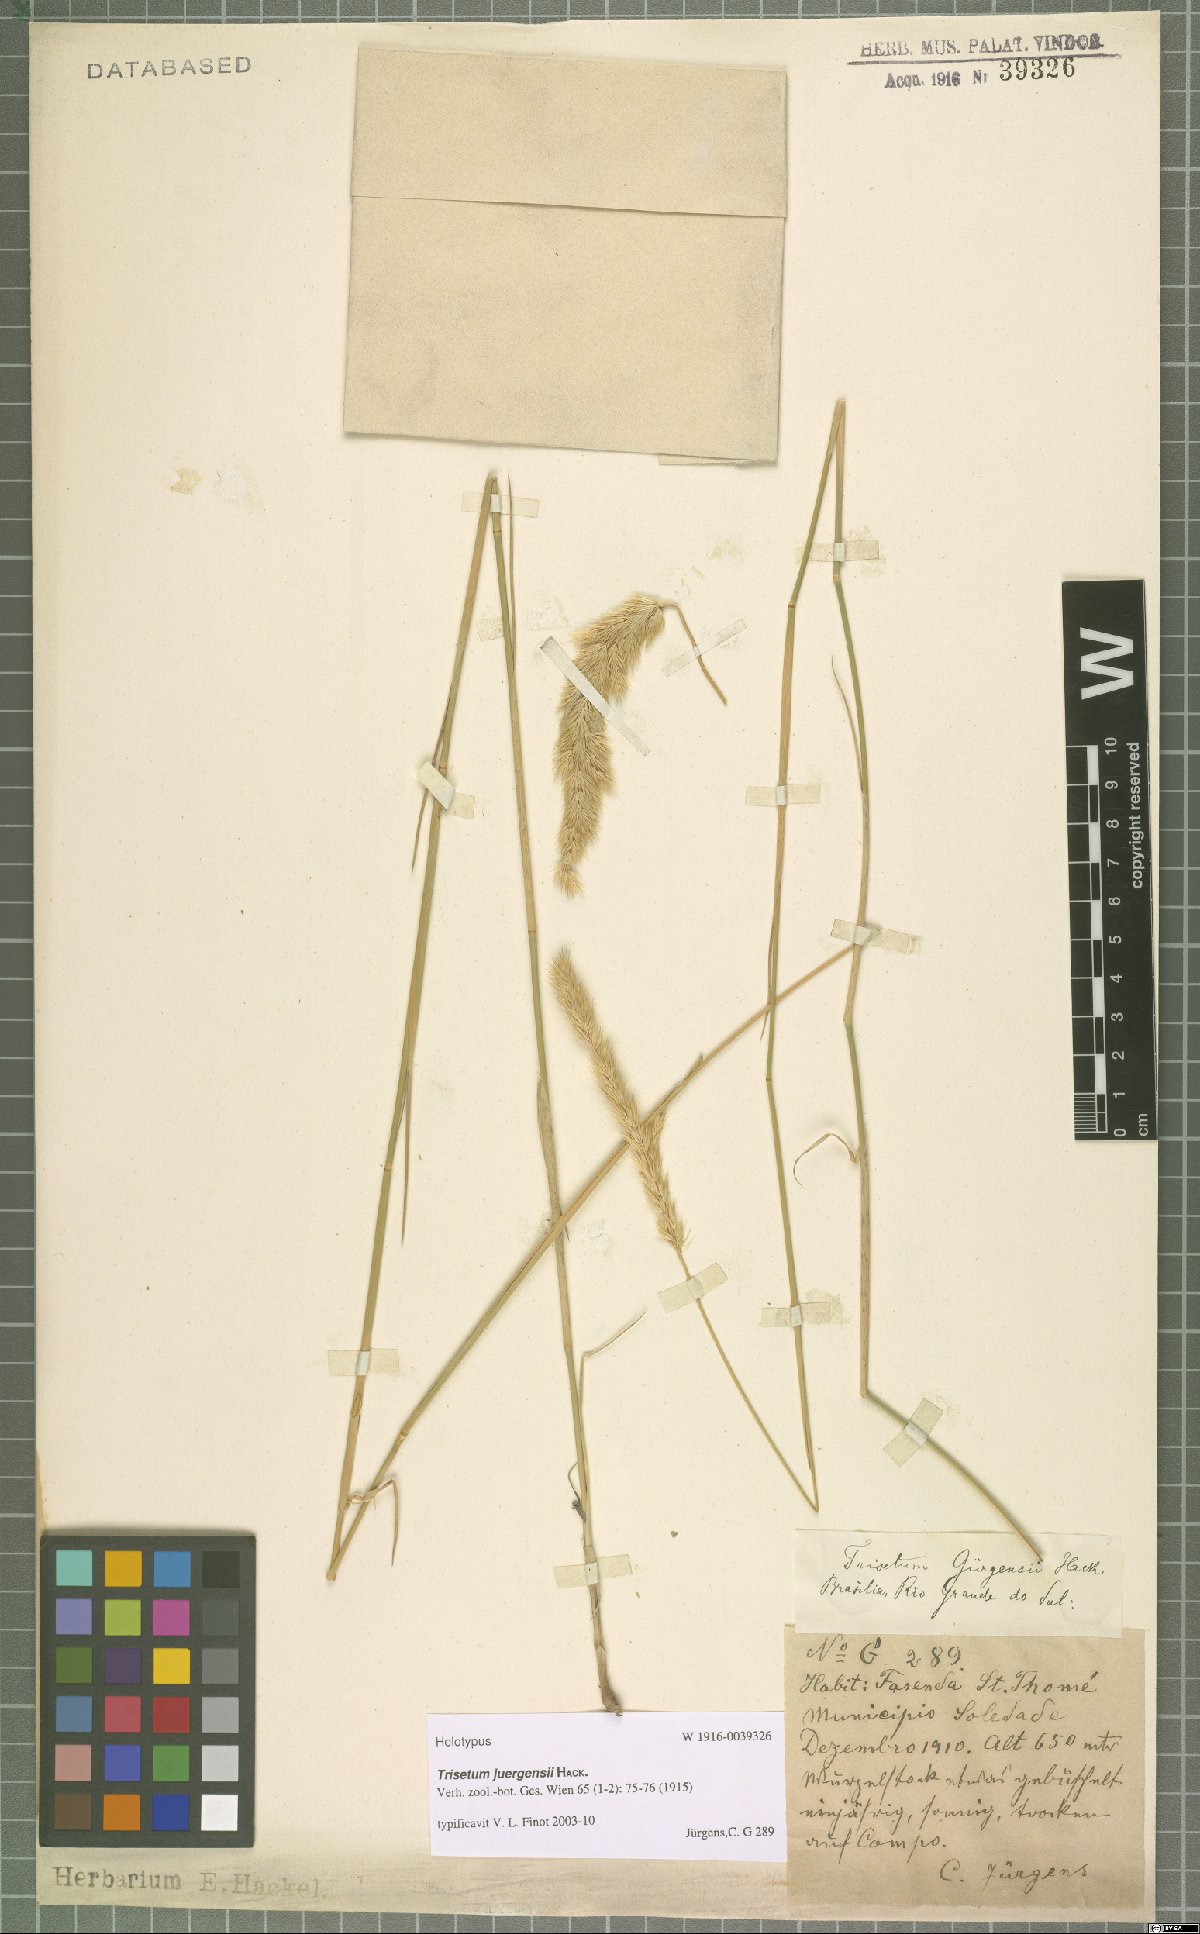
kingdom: Plantae
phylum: Tracheophyta
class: Liliopsida
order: Poales
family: Poaceae
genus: Trisetum
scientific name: Trisetum juergensii
